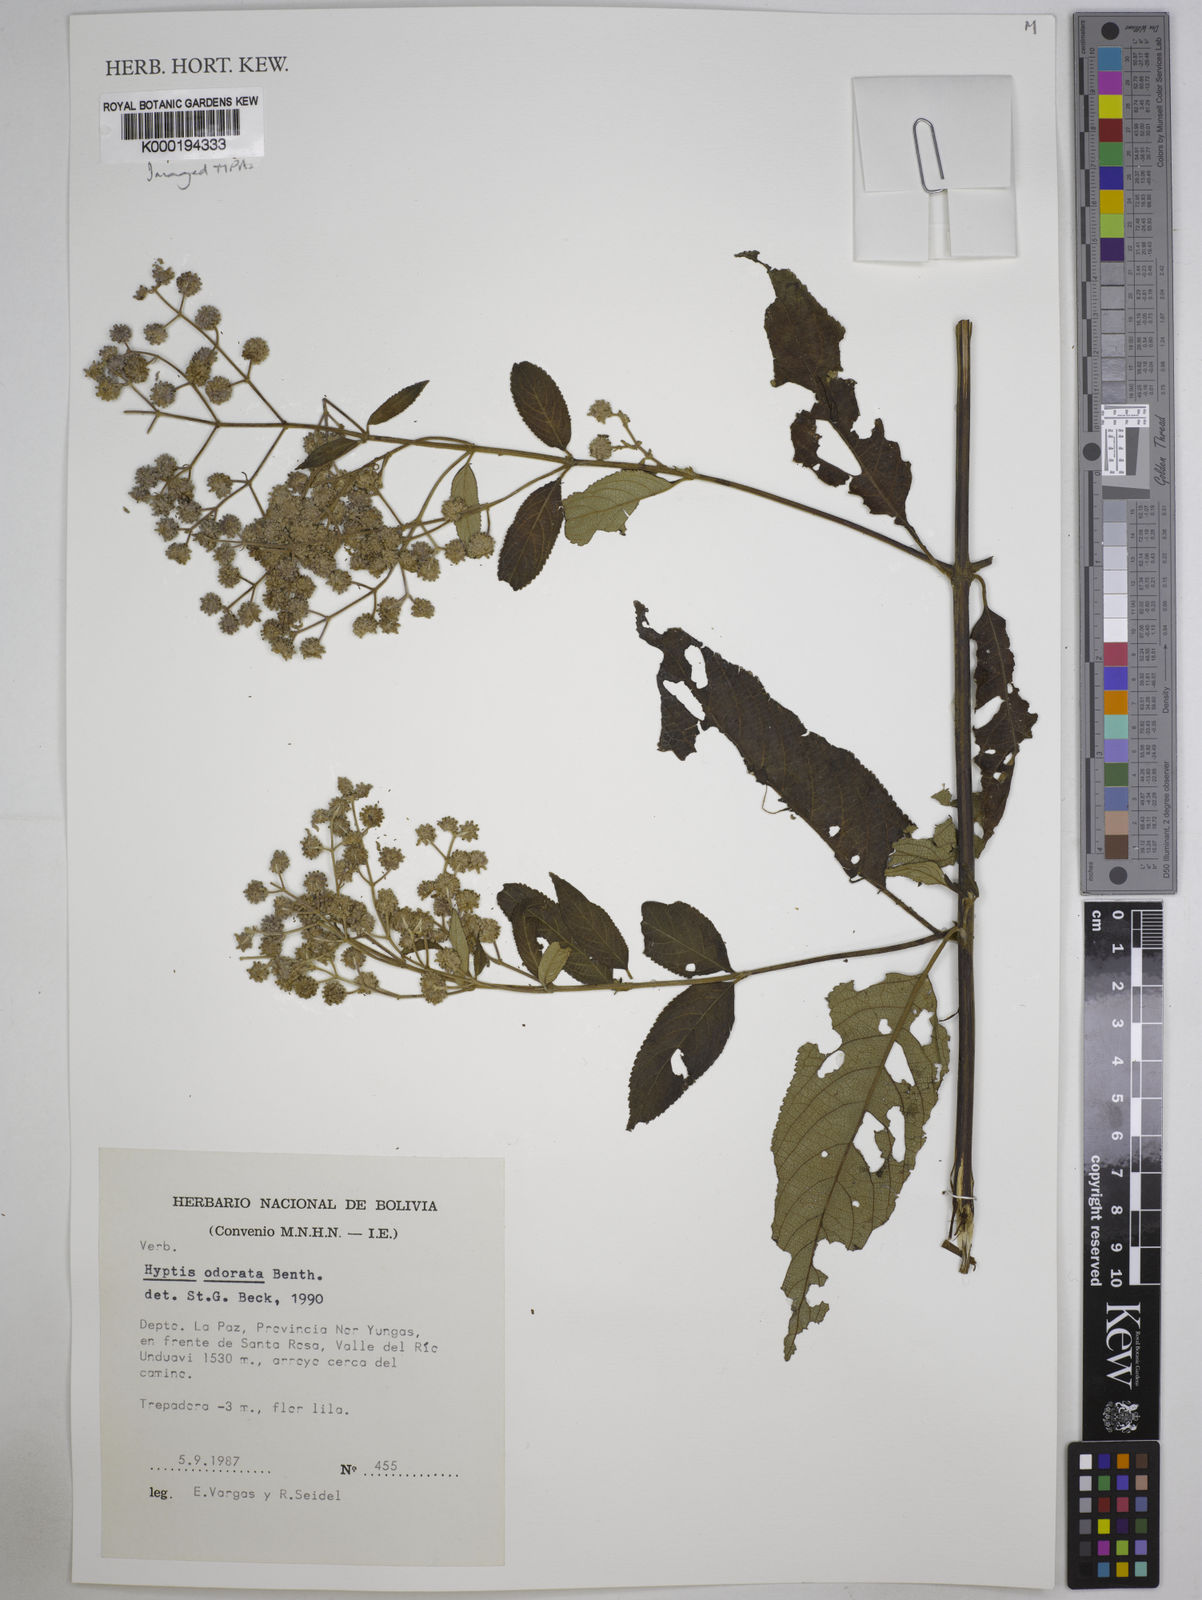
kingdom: Plantae
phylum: Tracheophyta
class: Magnoliopsida
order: Lamiales
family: Lamiaceae
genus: Hyptis
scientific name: Hyptis odorata
